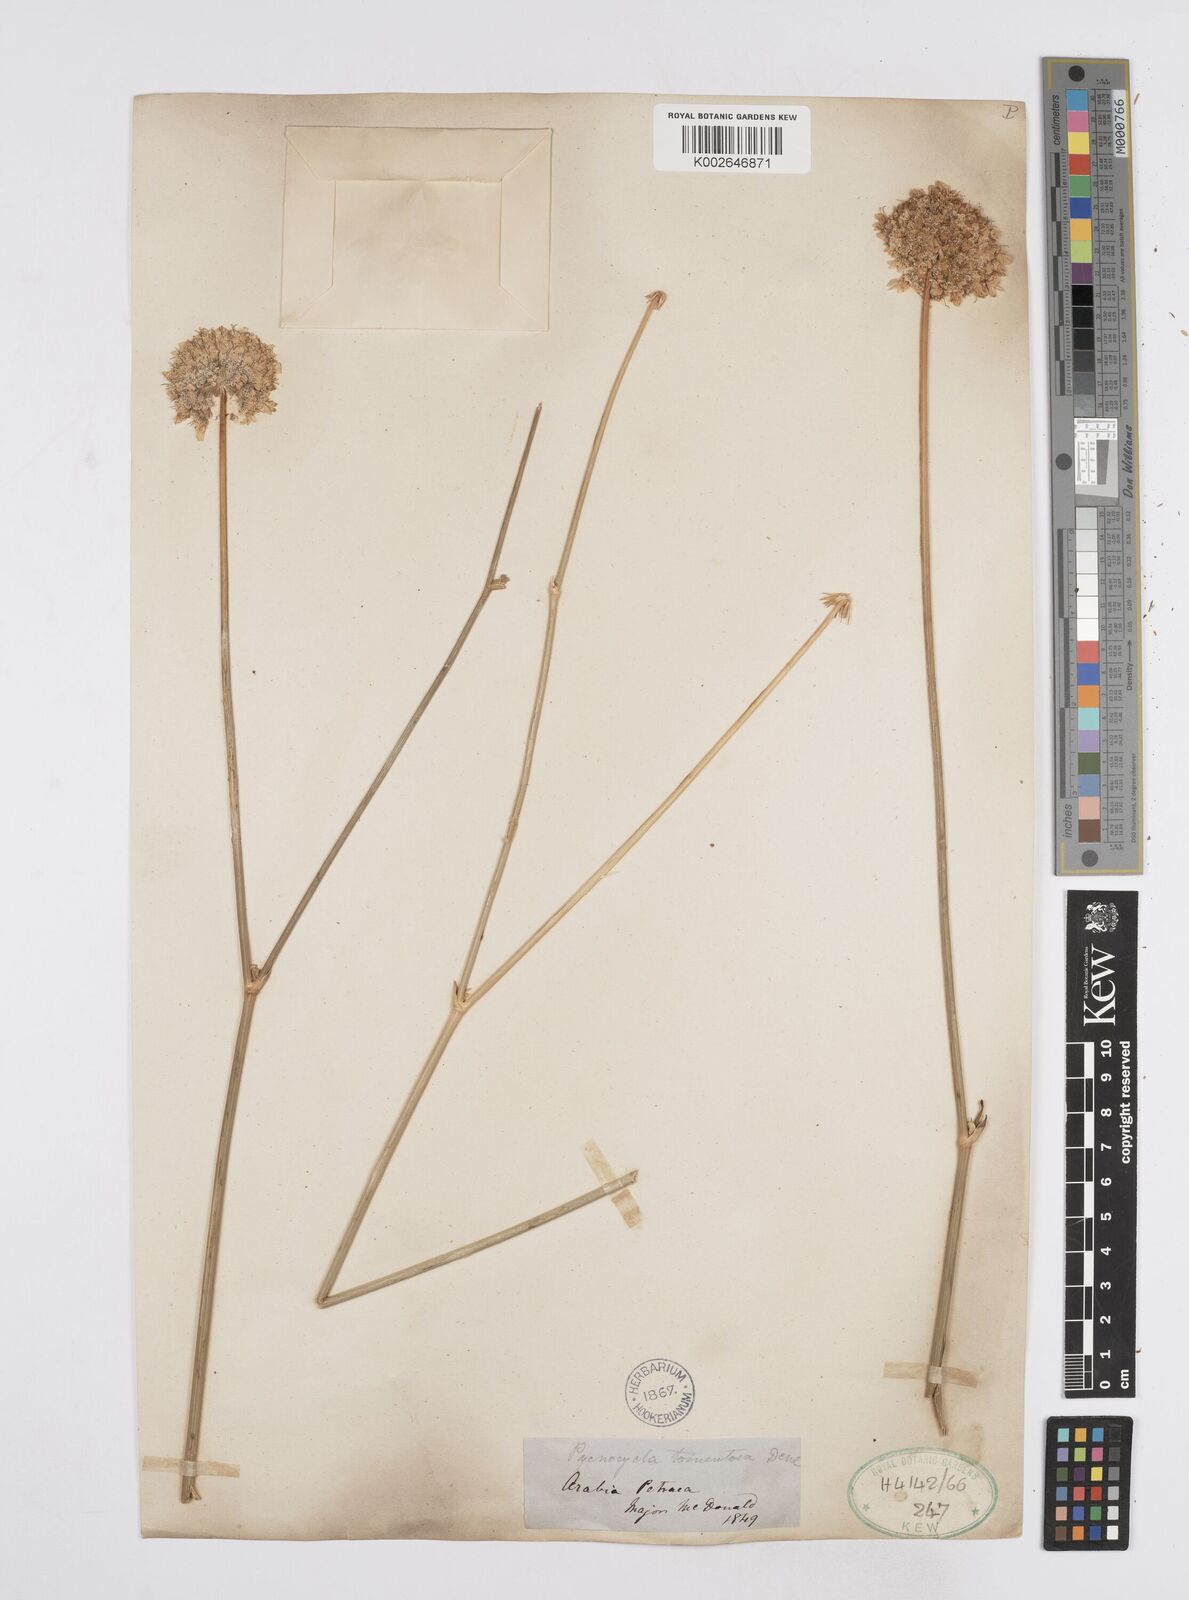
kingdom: Plantae
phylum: Tracheophyta
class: Magnoliopsida
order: Apiales
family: Apiaceae
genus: Pycnocycla
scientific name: Pycnocycla tomentosa
